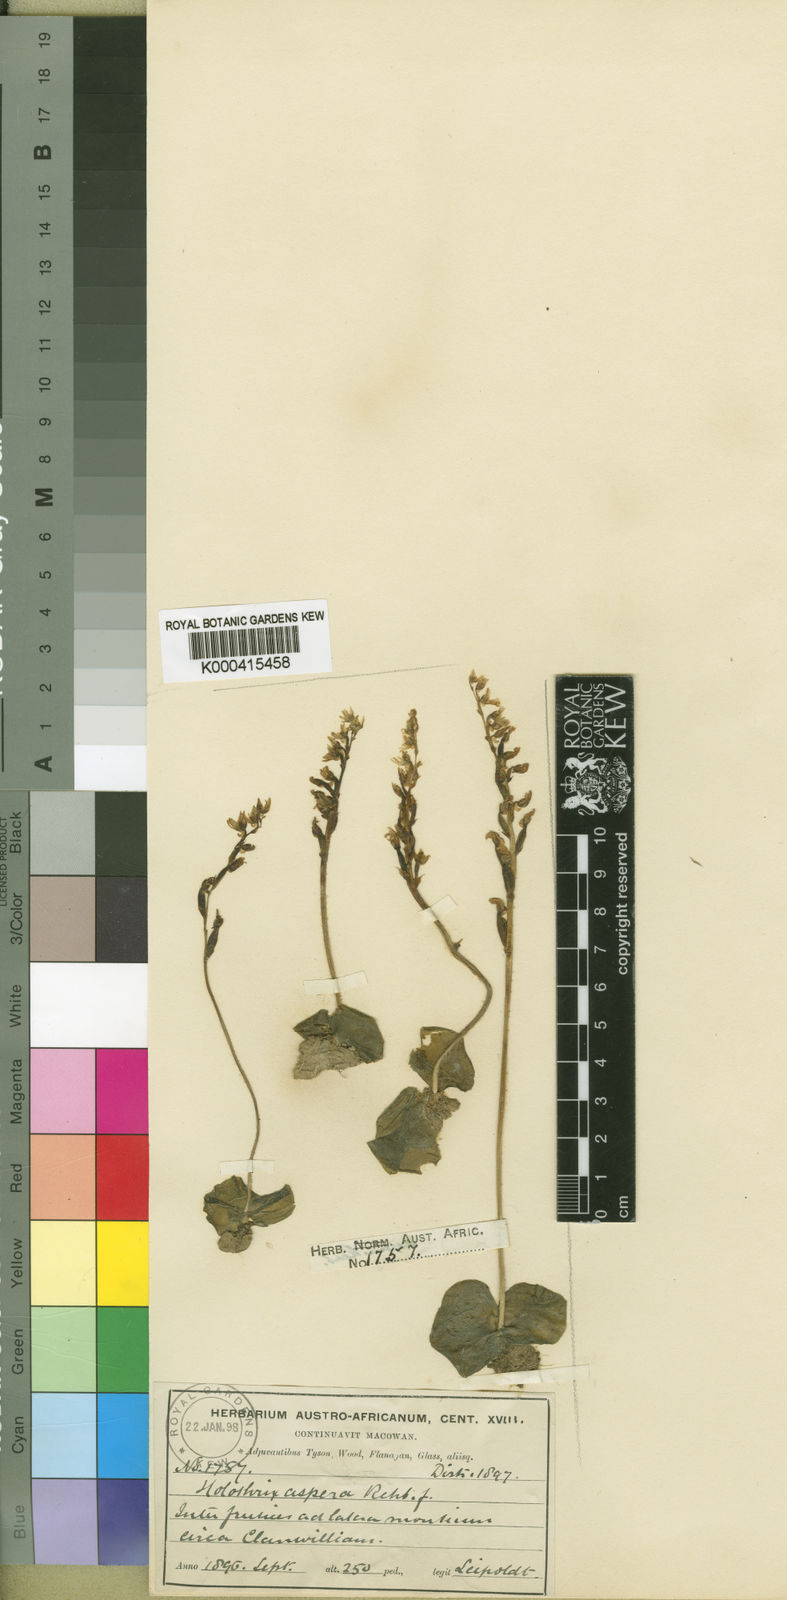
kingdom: Plantae
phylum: Tracheophyta
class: Liliopsida
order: Asparagales
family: Orchidaceae
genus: Holothrix
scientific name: Holothrix aspera
